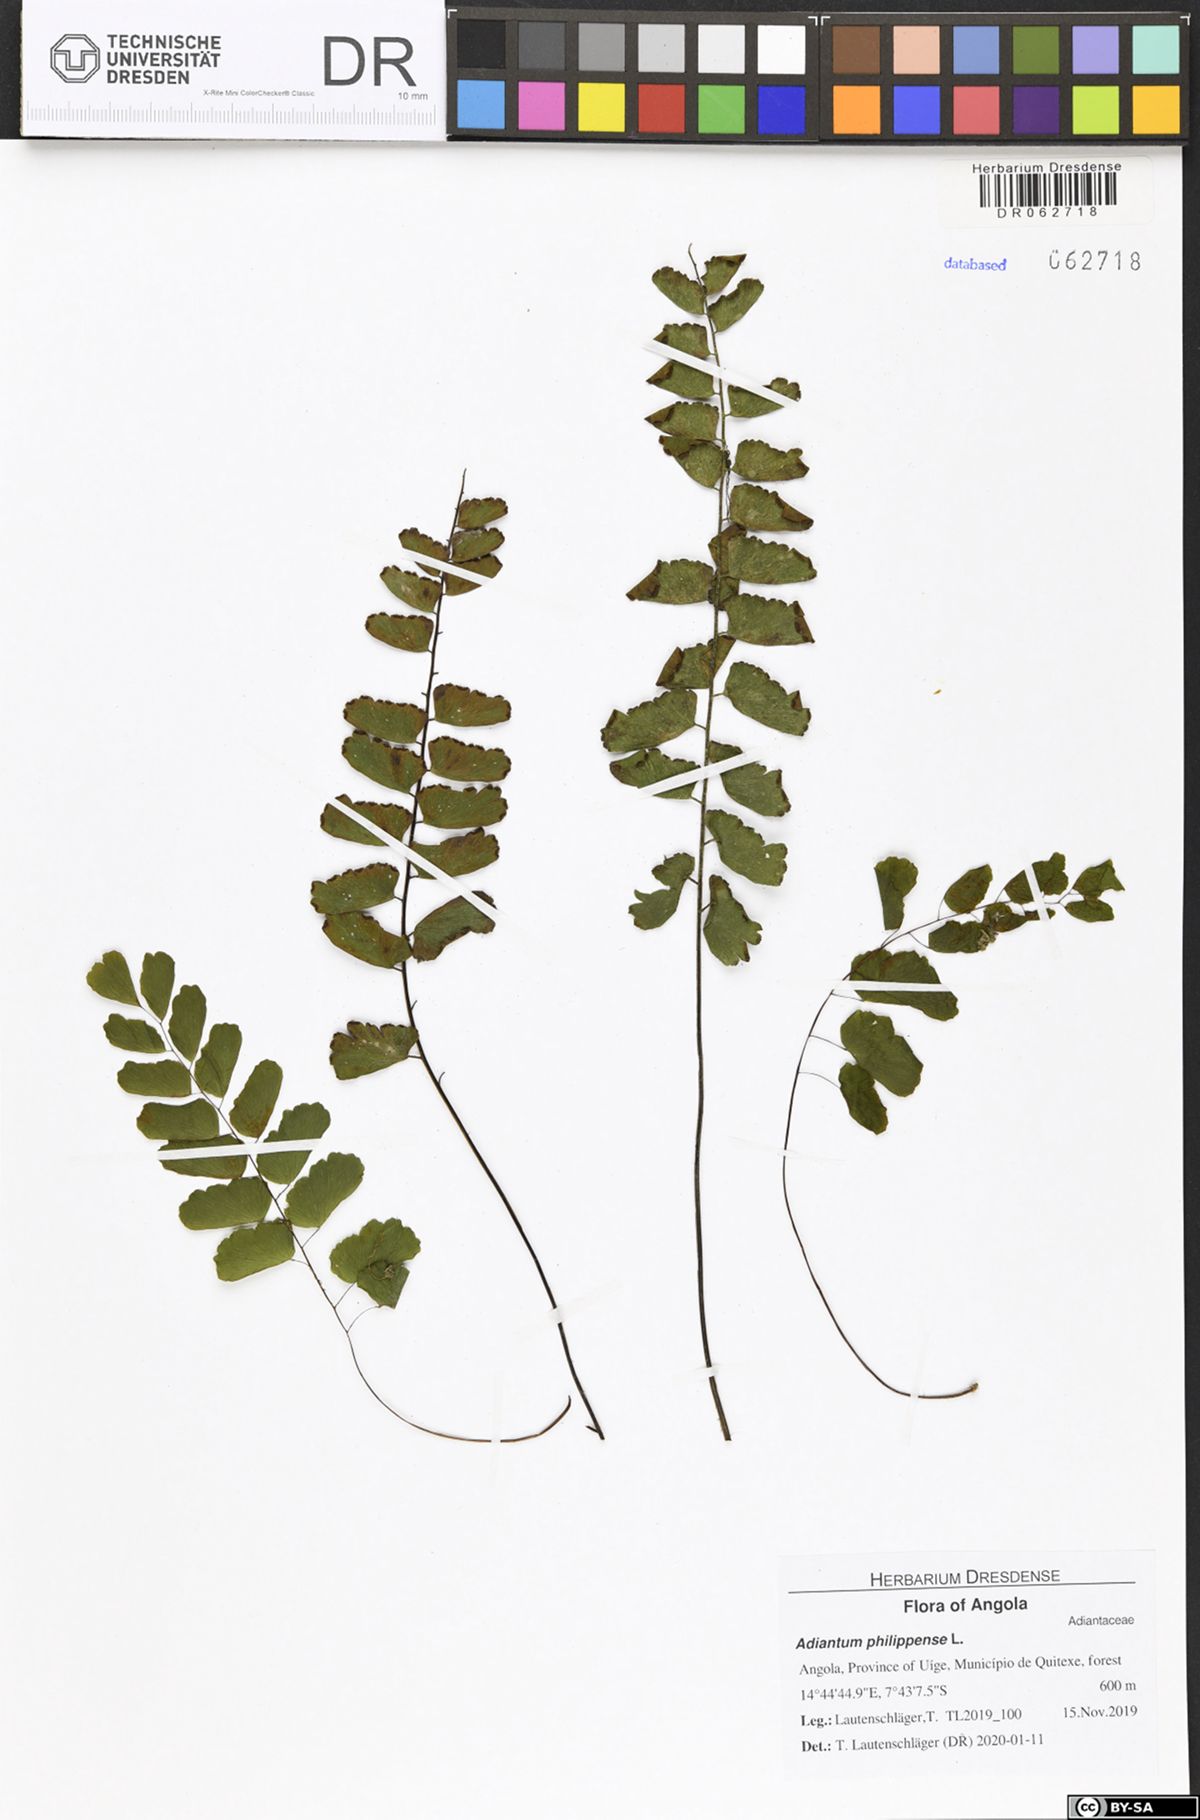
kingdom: Plantae
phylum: Tracheophyta
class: Polypodiopsida
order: Polypodiales
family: Pteridaceae
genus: Adiantum
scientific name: Adiantum philippense
